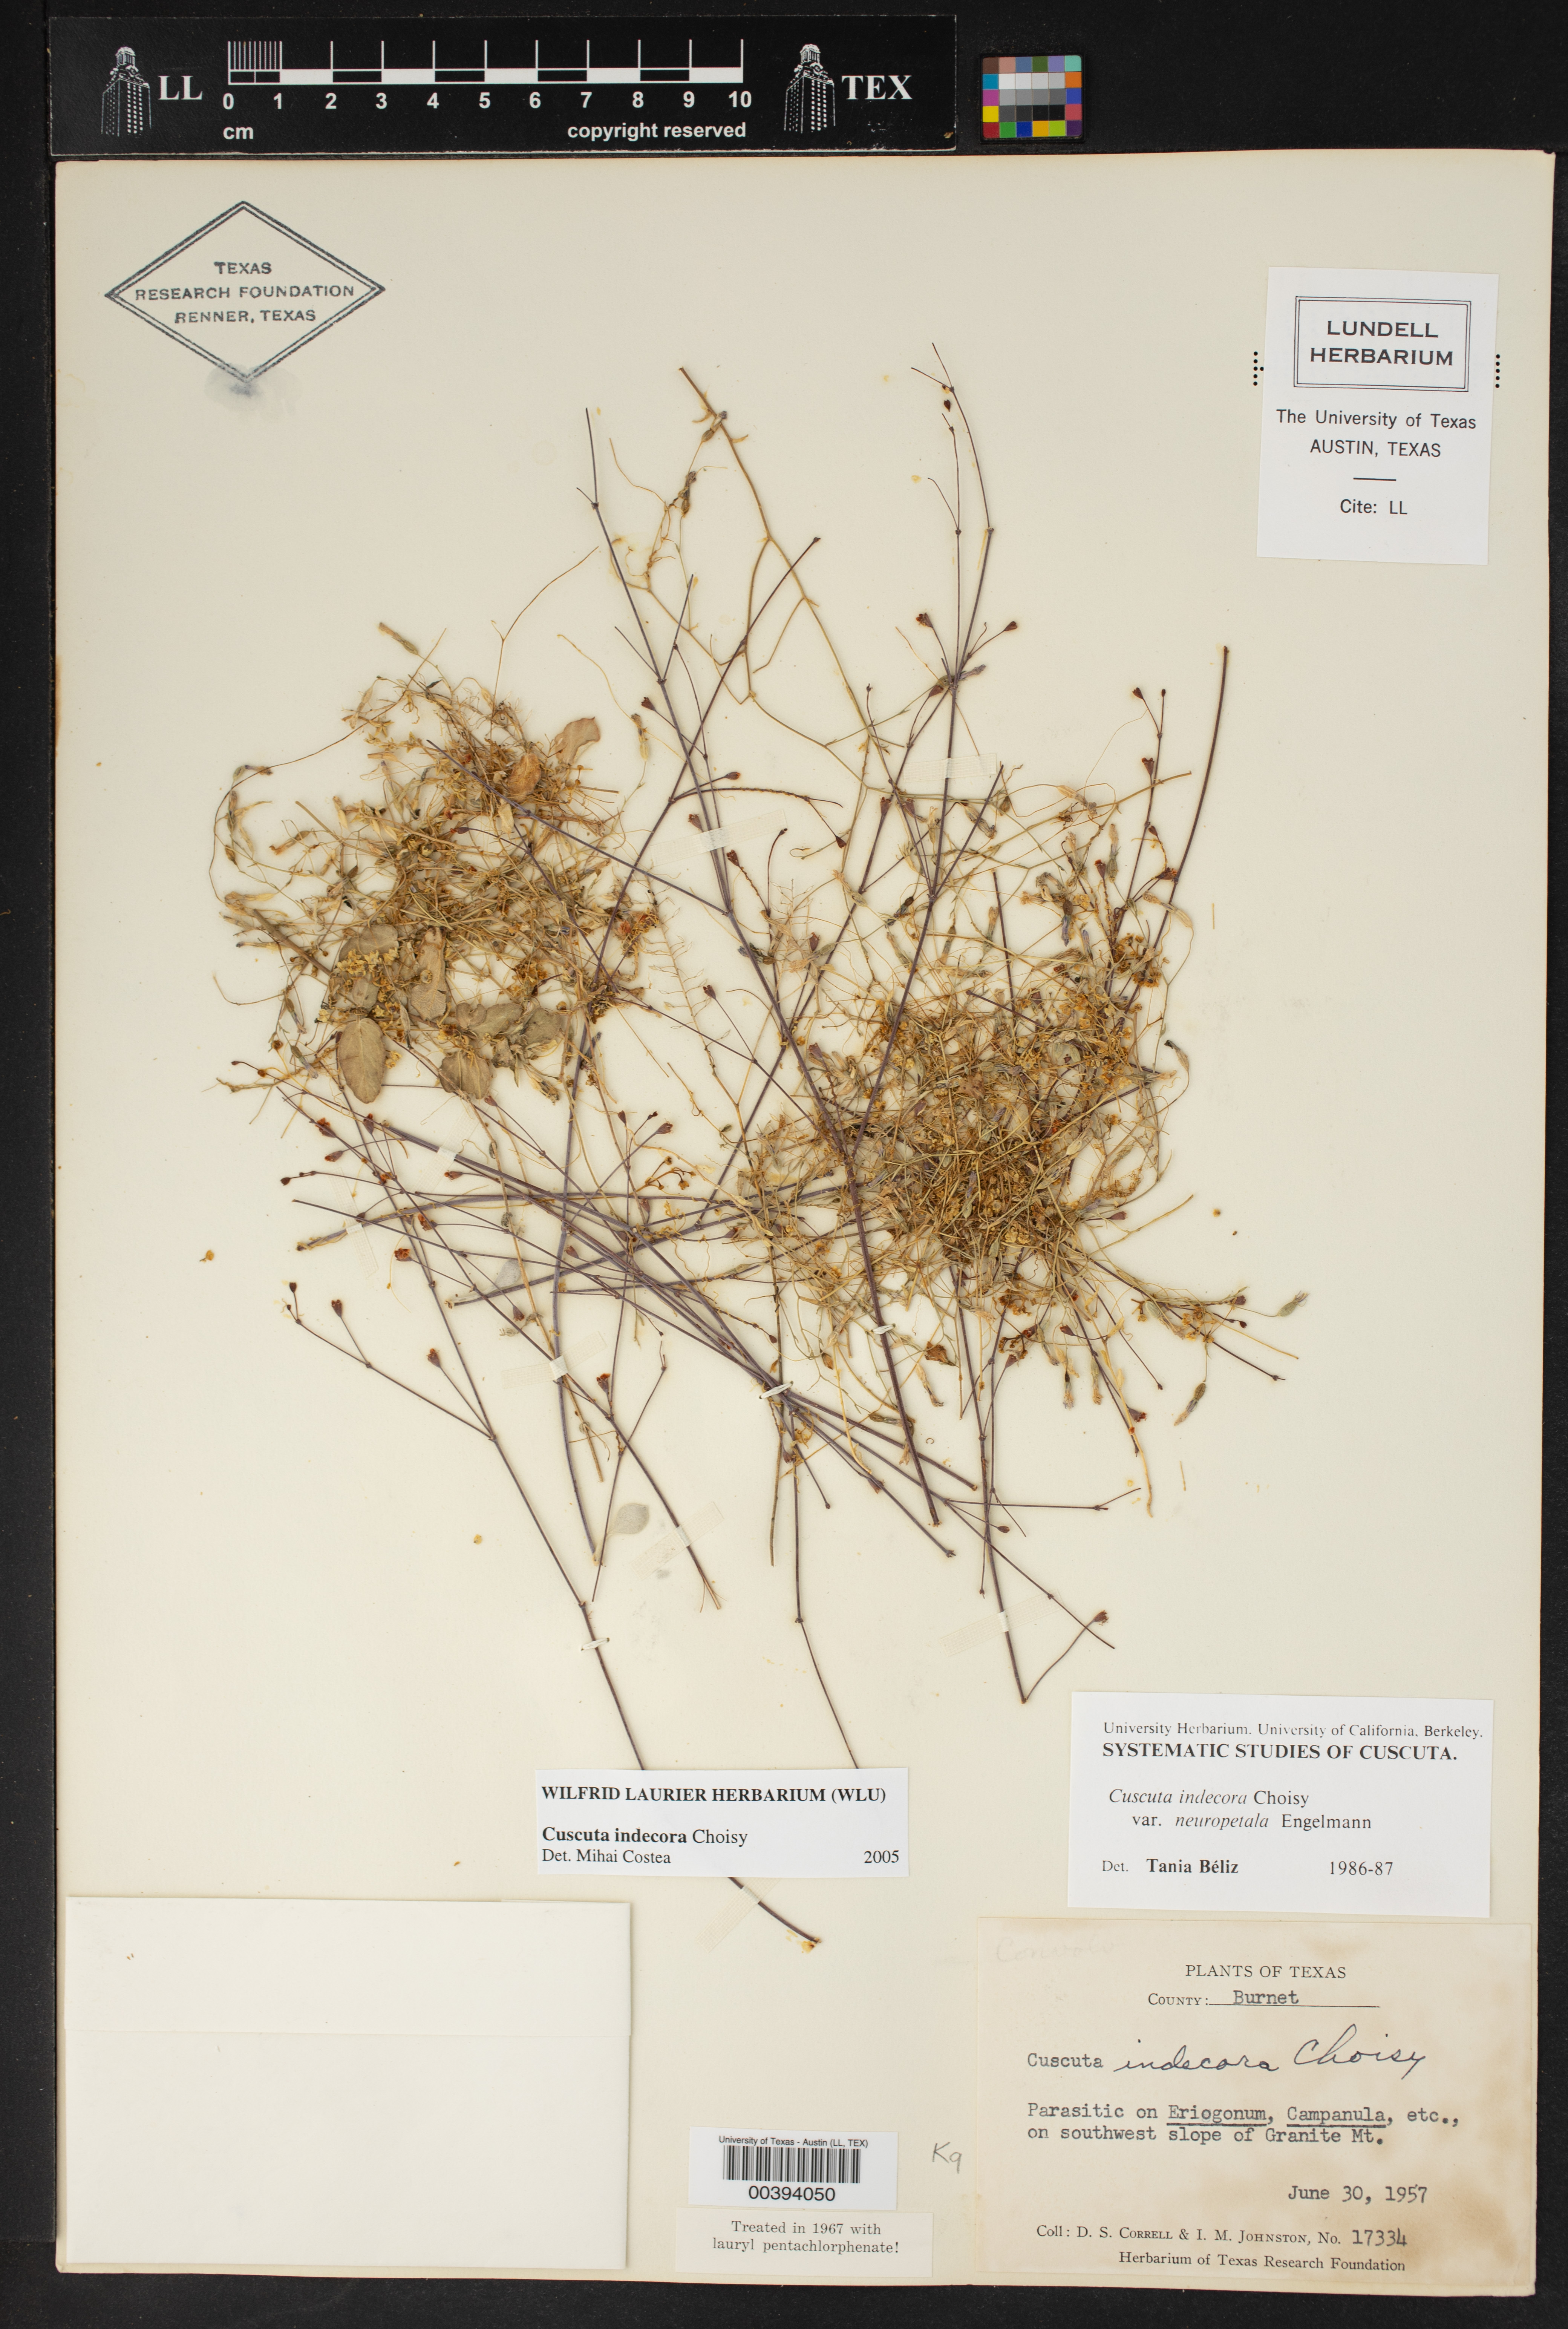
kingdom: Plantae
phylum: Tracheophyta
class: Magnoliopsida
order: Solanales
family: Convolvulaceae
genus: Cuscuta
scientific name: Cuscuta indecora
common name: Large-seed dodder
